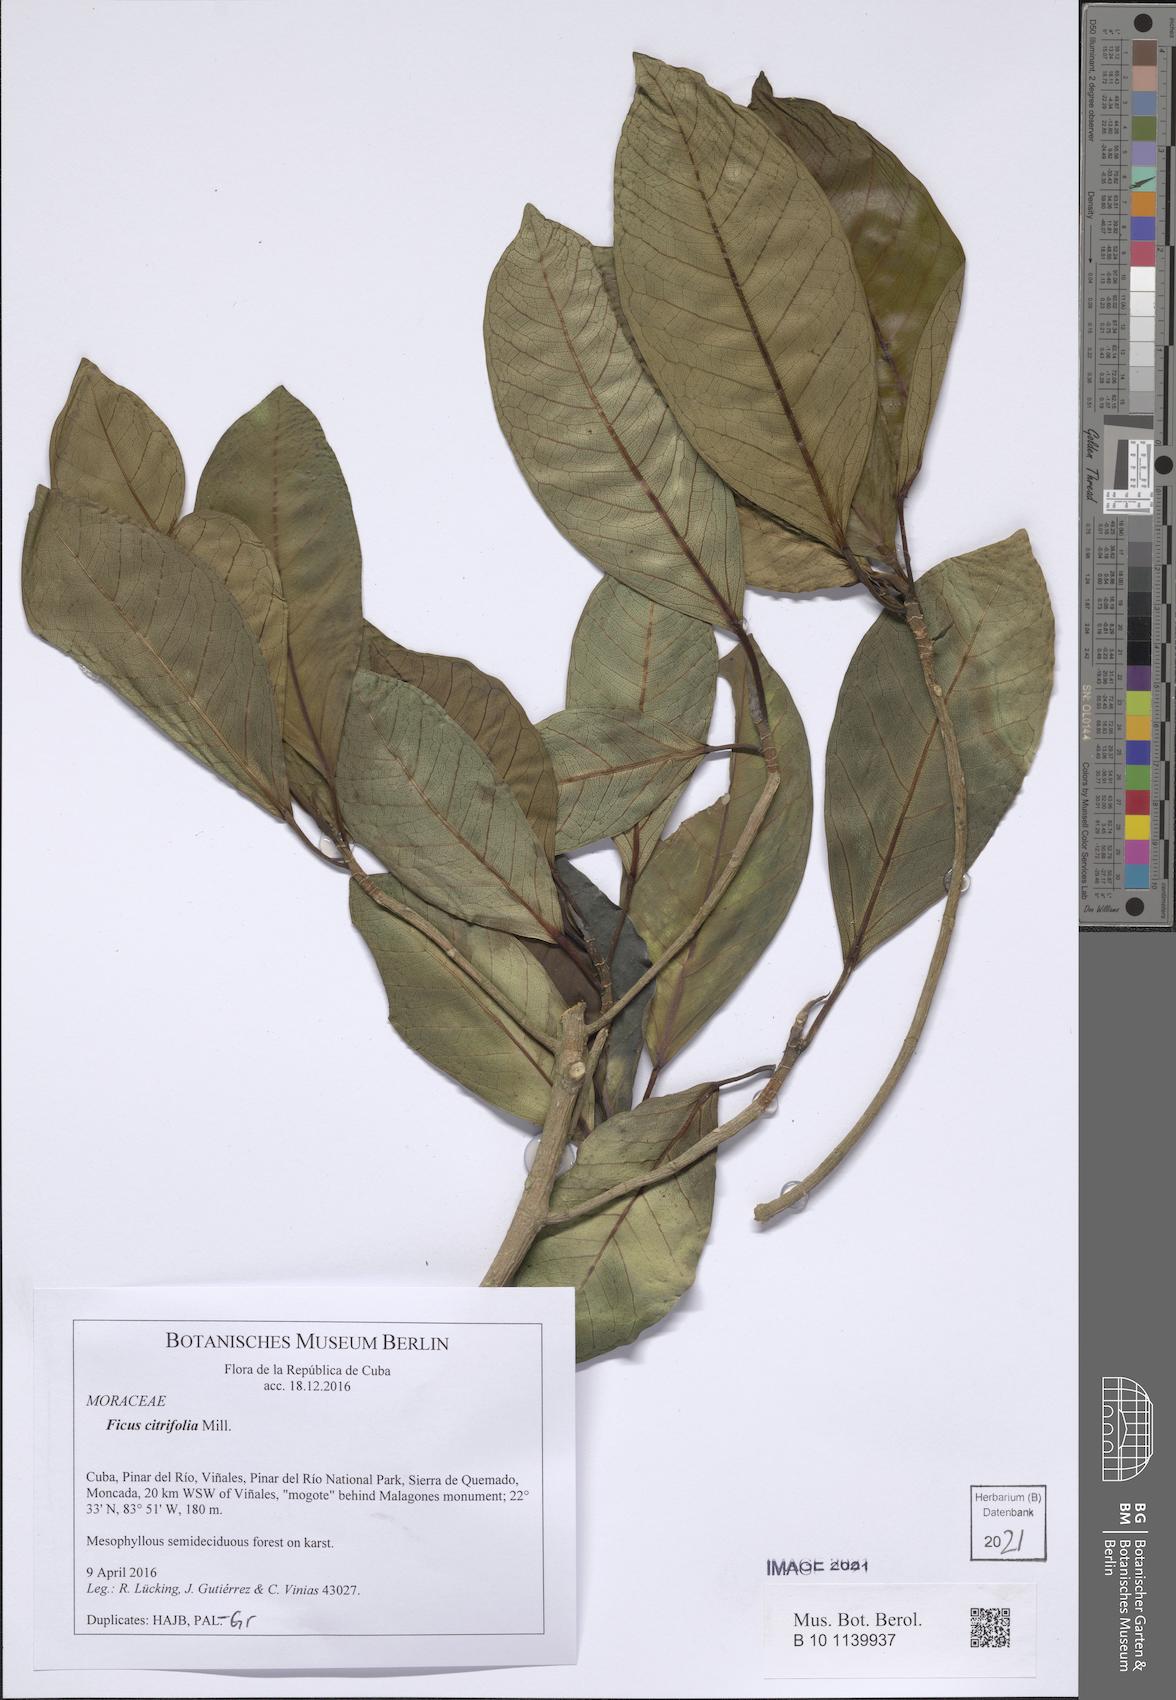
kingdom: Plantae
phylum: Tracheophyta
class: Magnoliopsida
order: Rosales
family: Moraceae
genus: Ficus
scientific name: Ficus aurea
